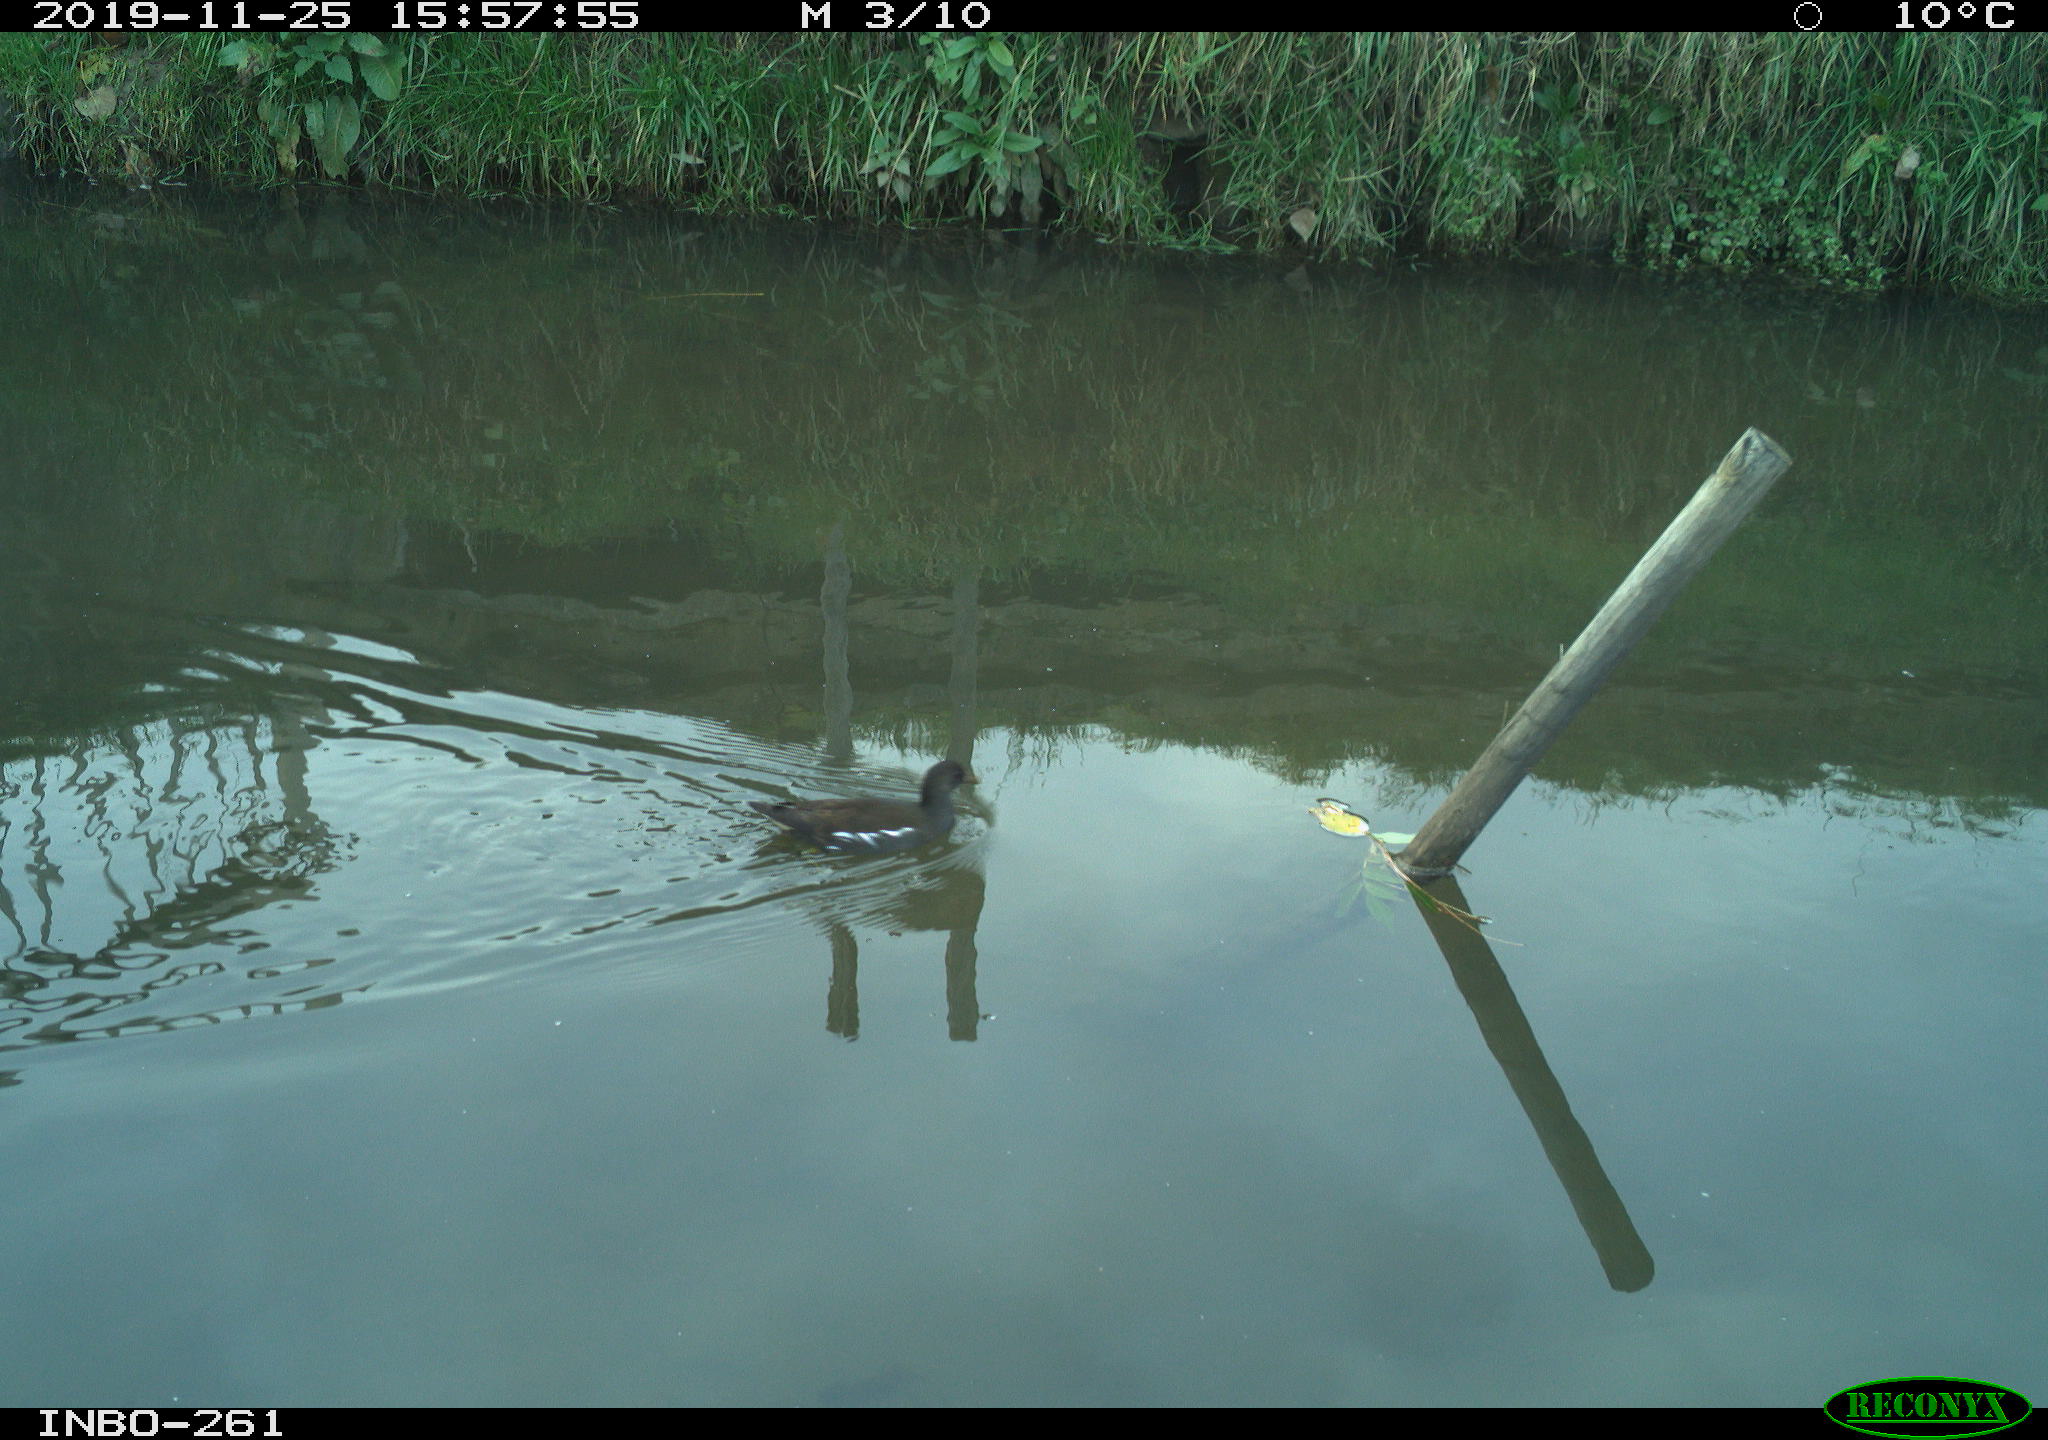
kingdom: Animalia
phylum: Chordata
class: Aves
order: Gruiformes
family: Rallidae
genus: Gallinula
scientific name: Gallinula chloropus
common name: Common moorhen
